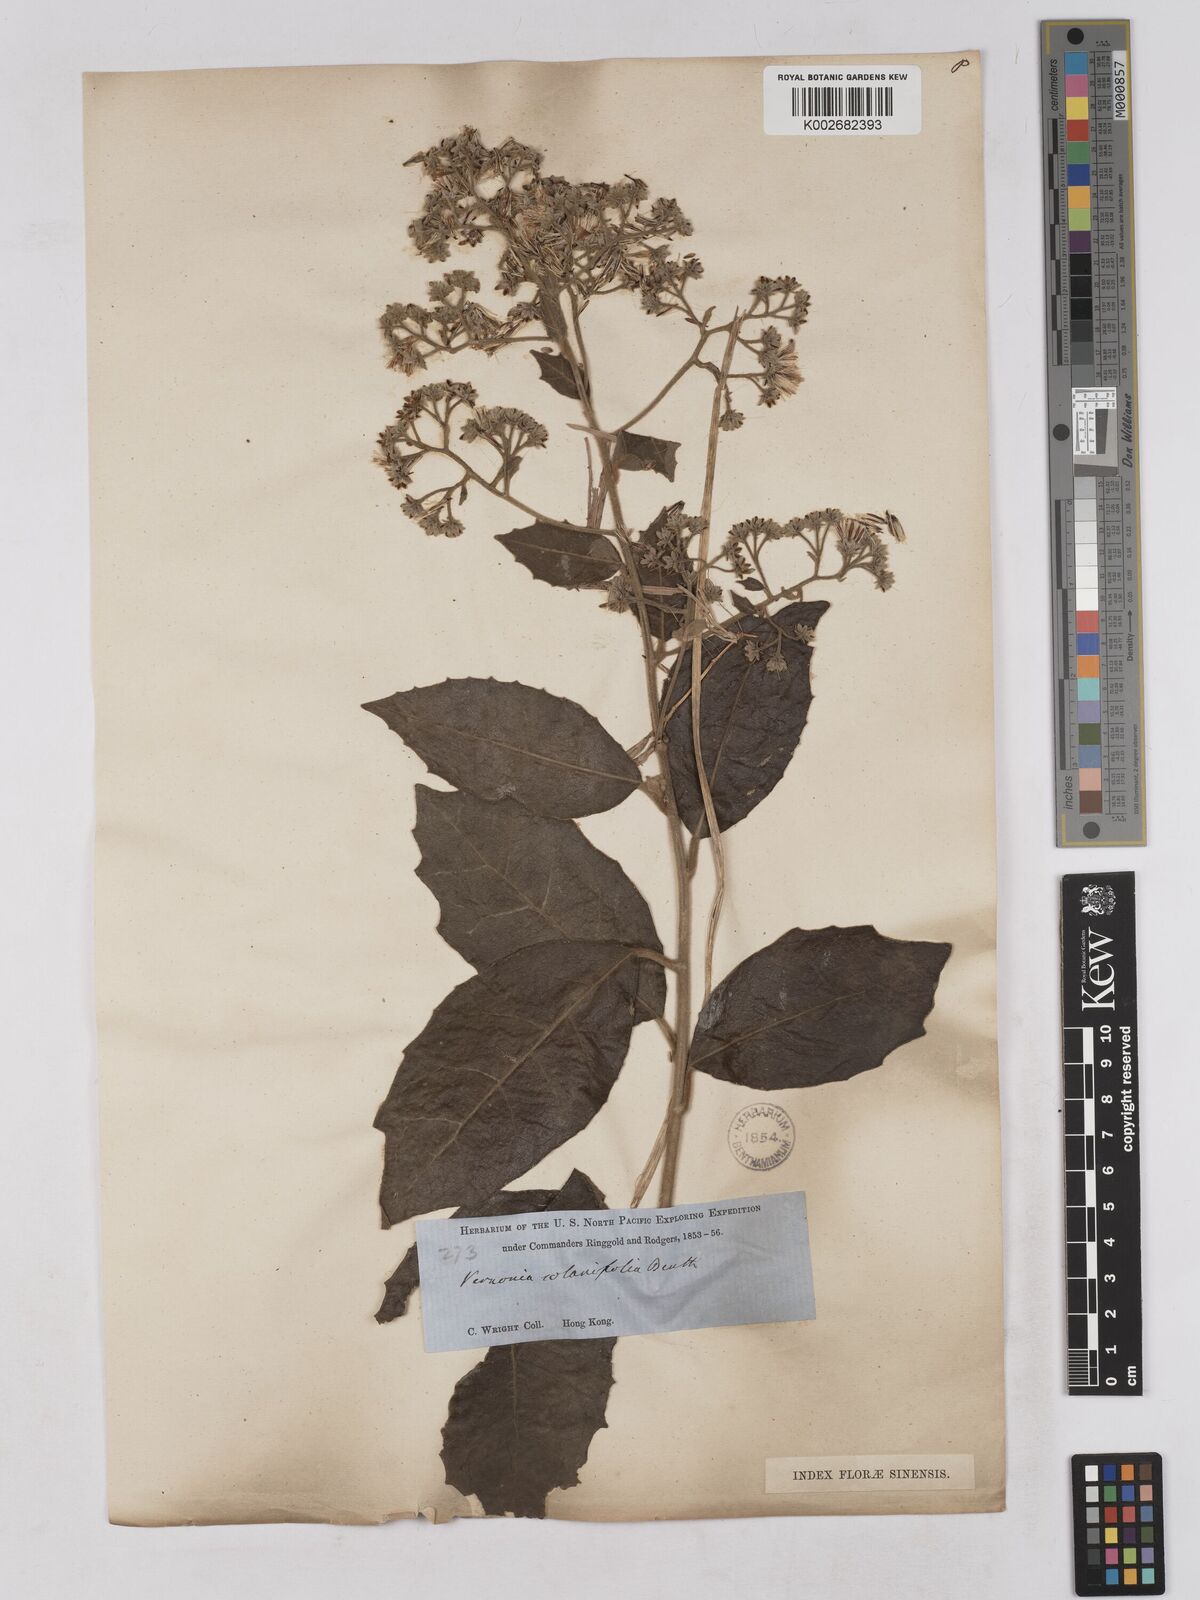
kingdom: Plantae
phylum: Tracheophyta
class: Magnoliopsida
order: Asterales
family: Asteraceae
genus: Strobocalyx
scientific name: Strobocalyx solanifolia
